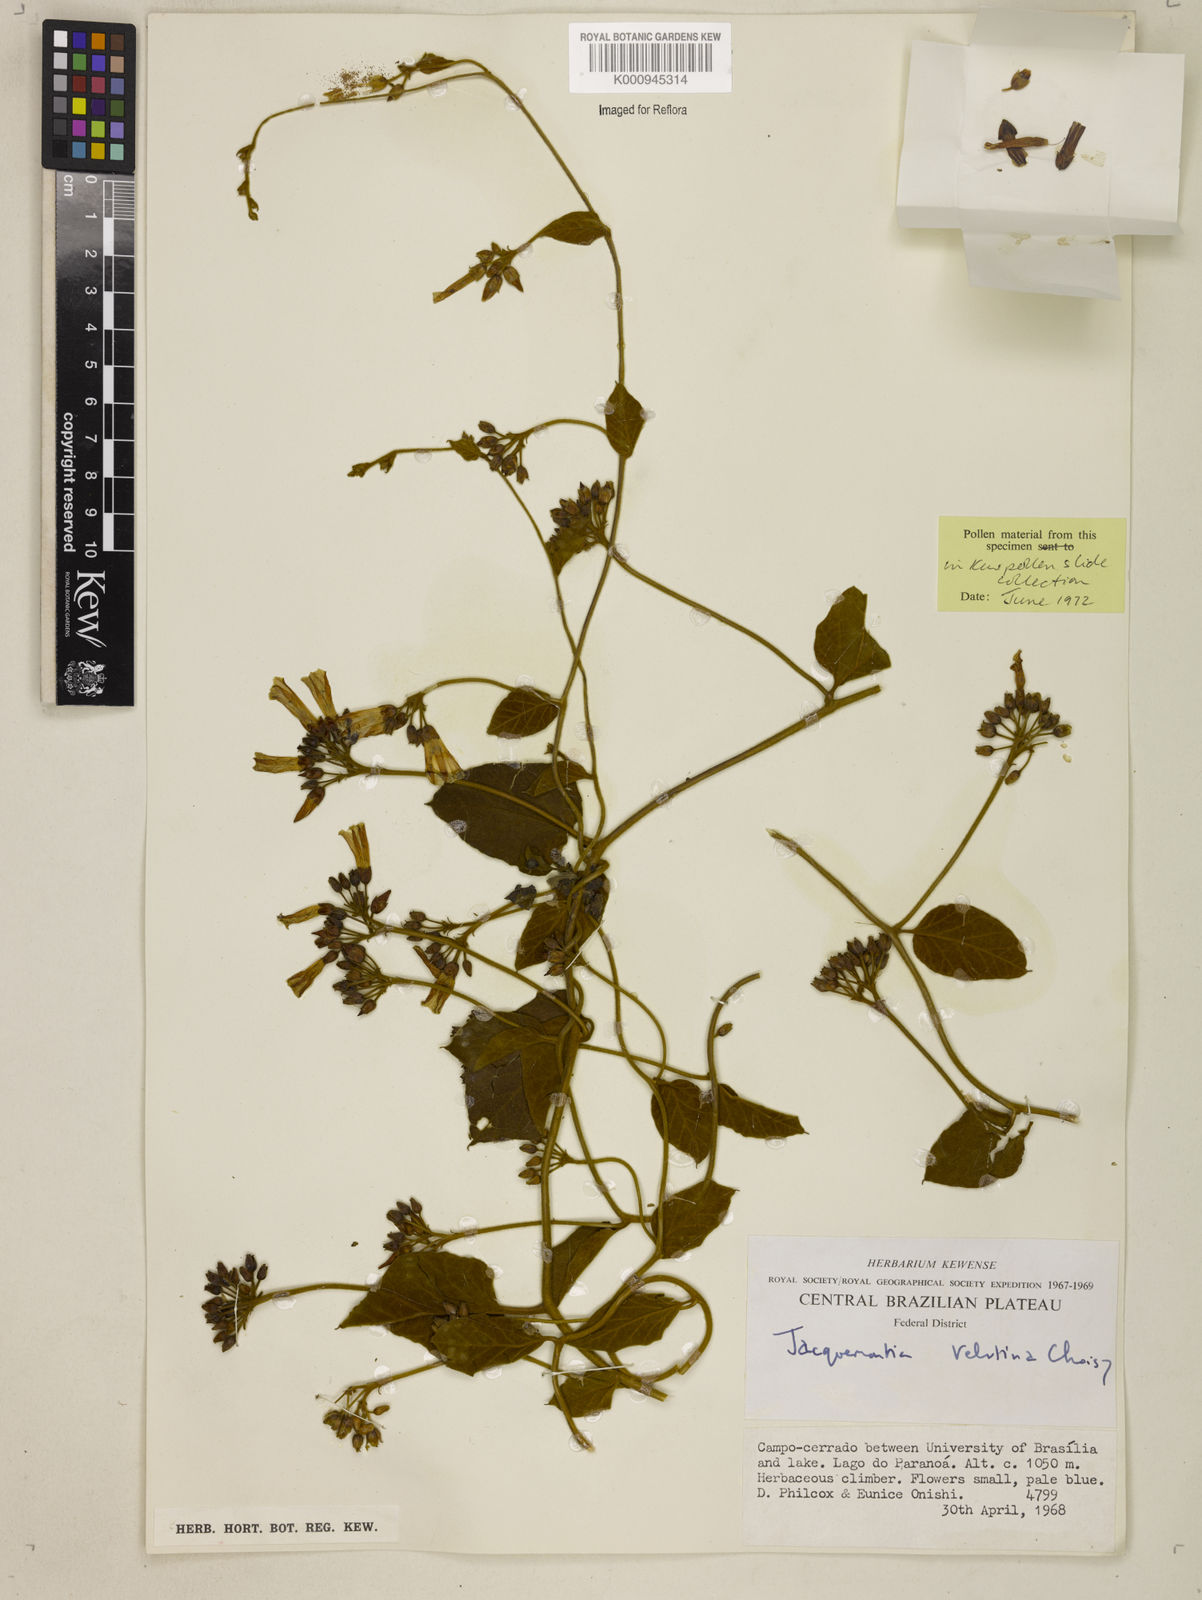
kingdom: Plantae
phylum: Tracheophyta
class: Magnoliopsida
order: Solanales
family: Convolvulaceae
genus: Jacquemontia
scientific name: Jacquemontia velutina
